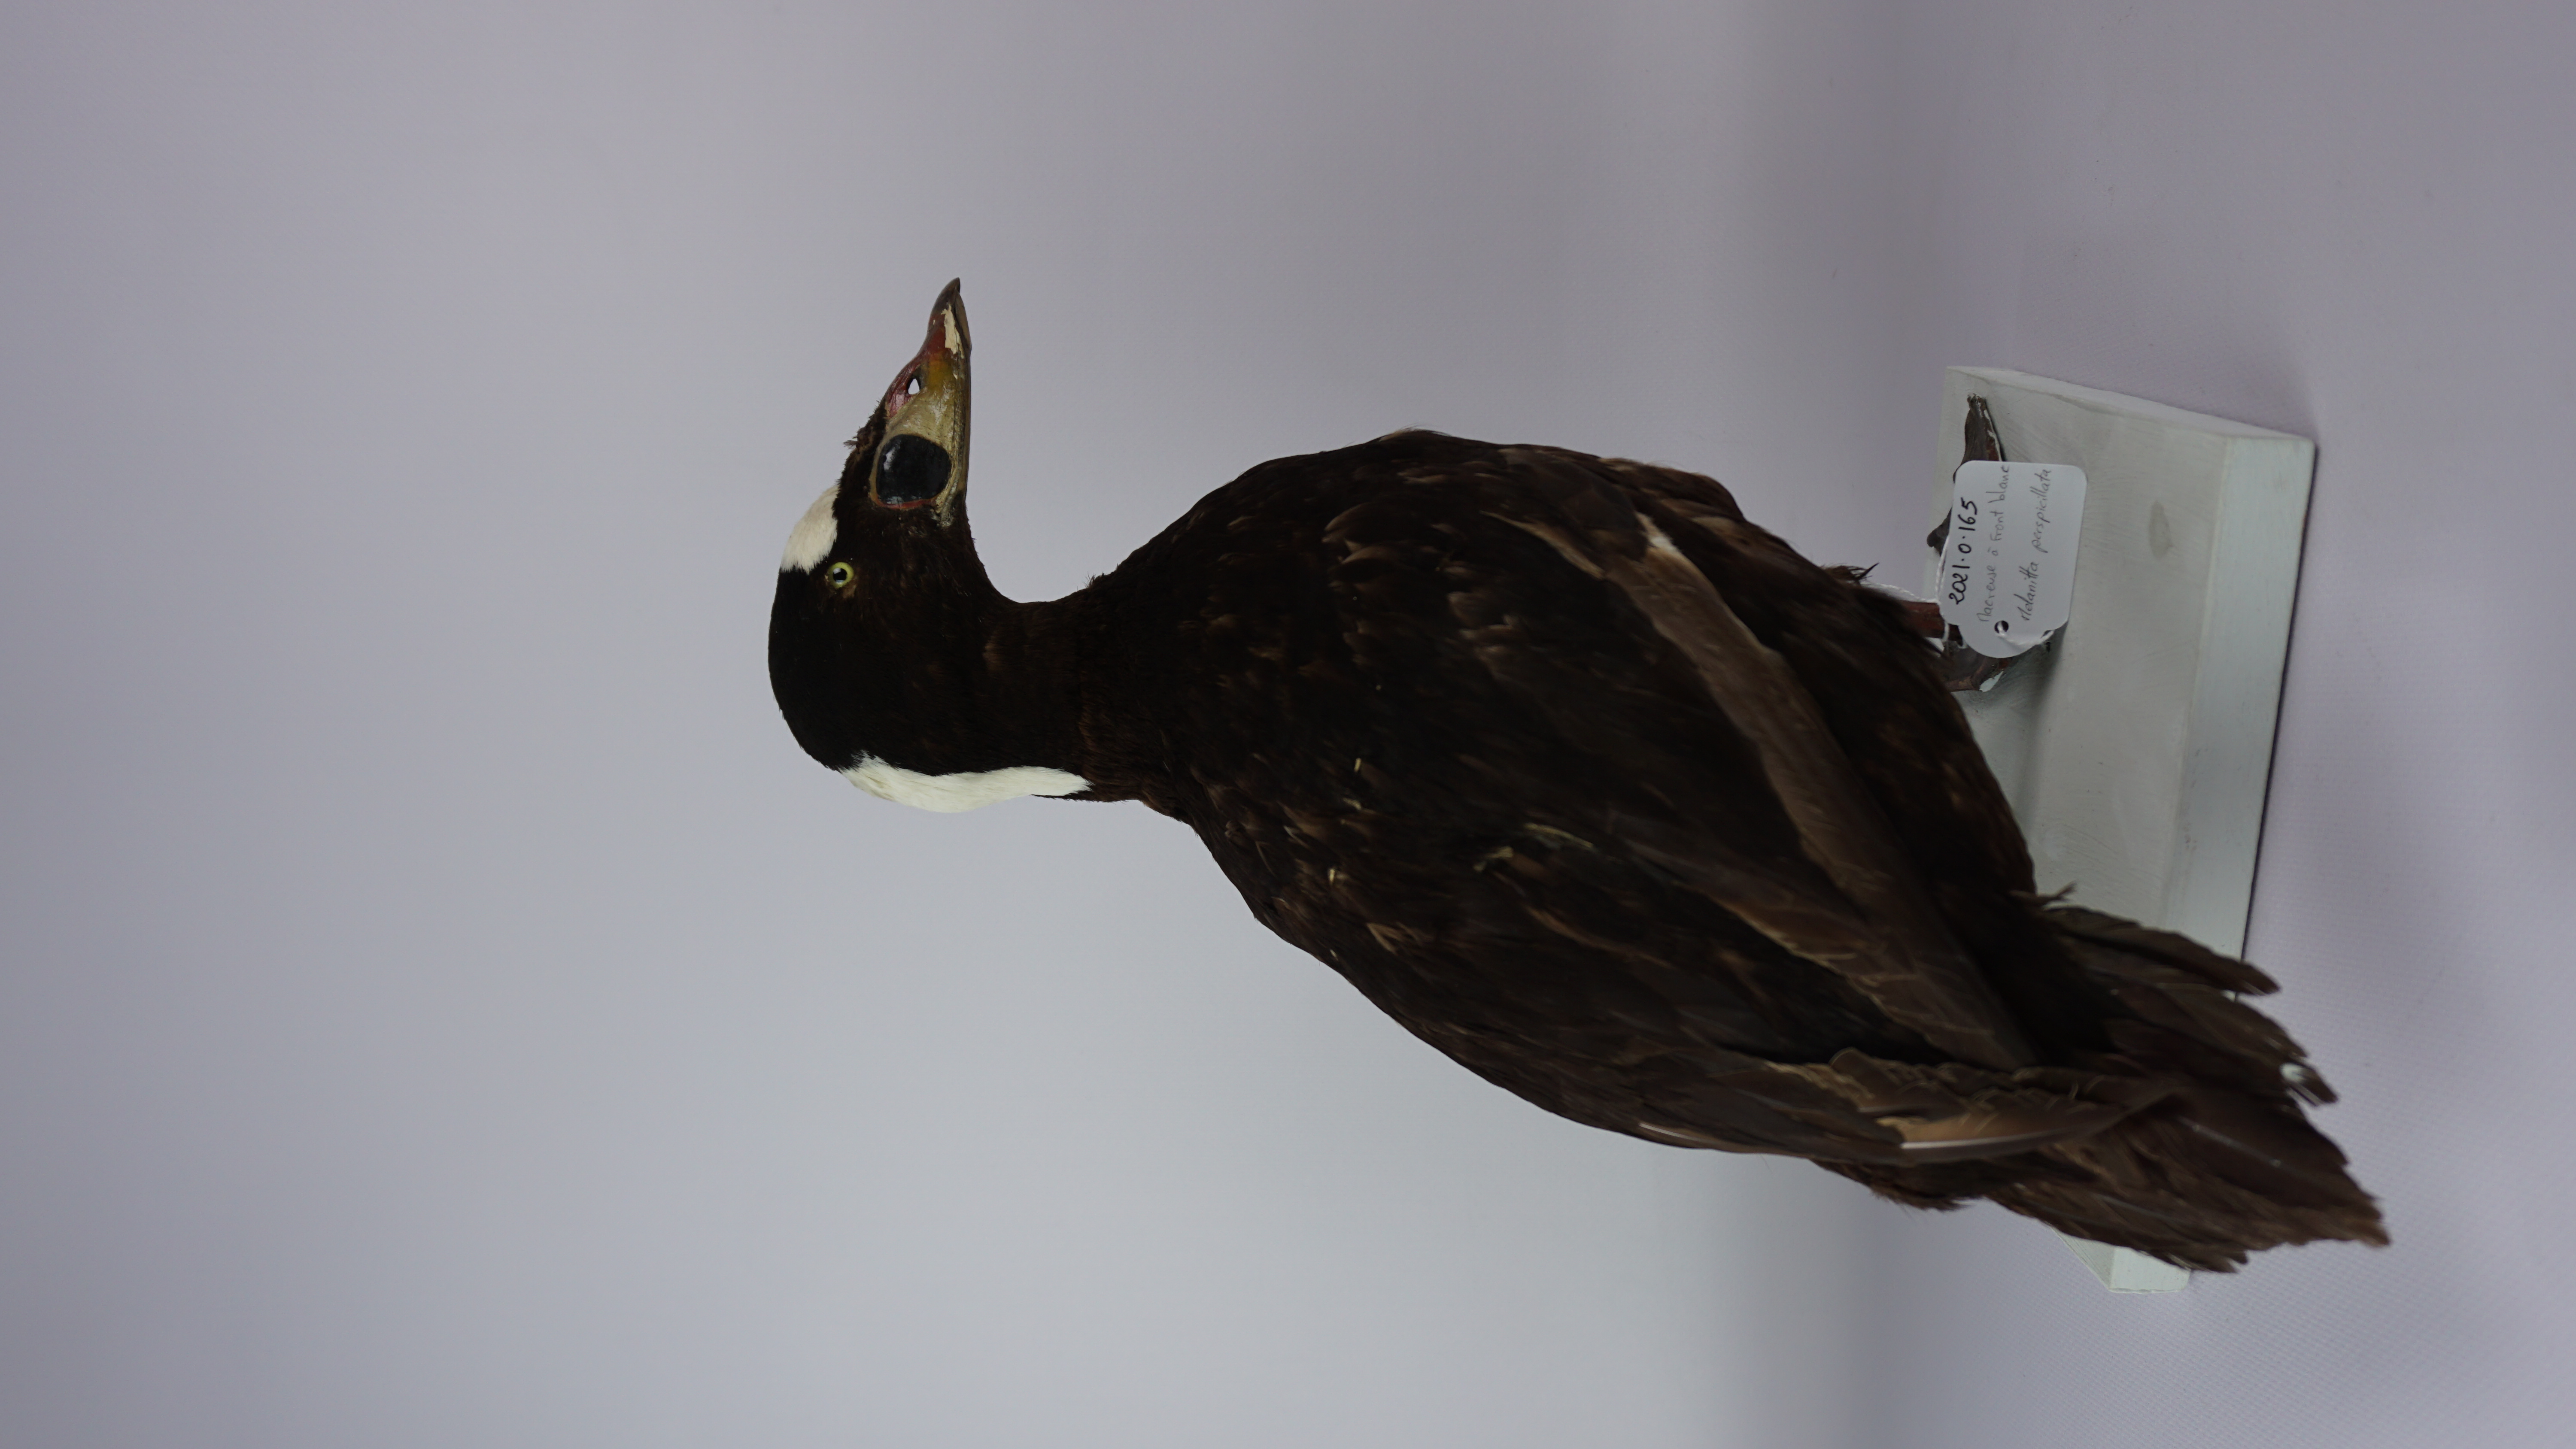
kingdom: Animalia
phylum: Chordata
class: Aves
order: Anseriformes
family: Anatidae
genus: Melanitta
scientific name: Melanitta perspicillata
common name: Surf scoter
